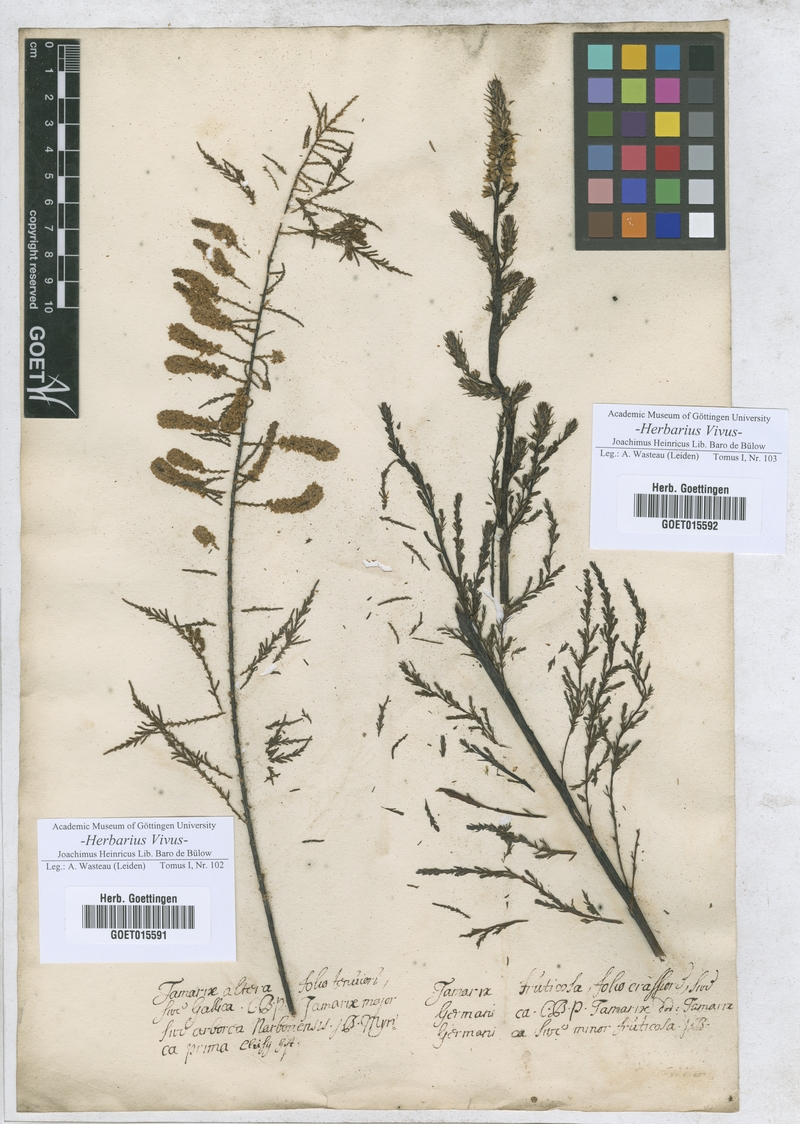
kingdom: Plantae
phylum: Tracheophyta
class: Magnoliopsida
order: Caryophyllales
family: Tamaricaceae
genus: Tamarix
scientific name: Tamarix gallica
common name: Tamarisk
